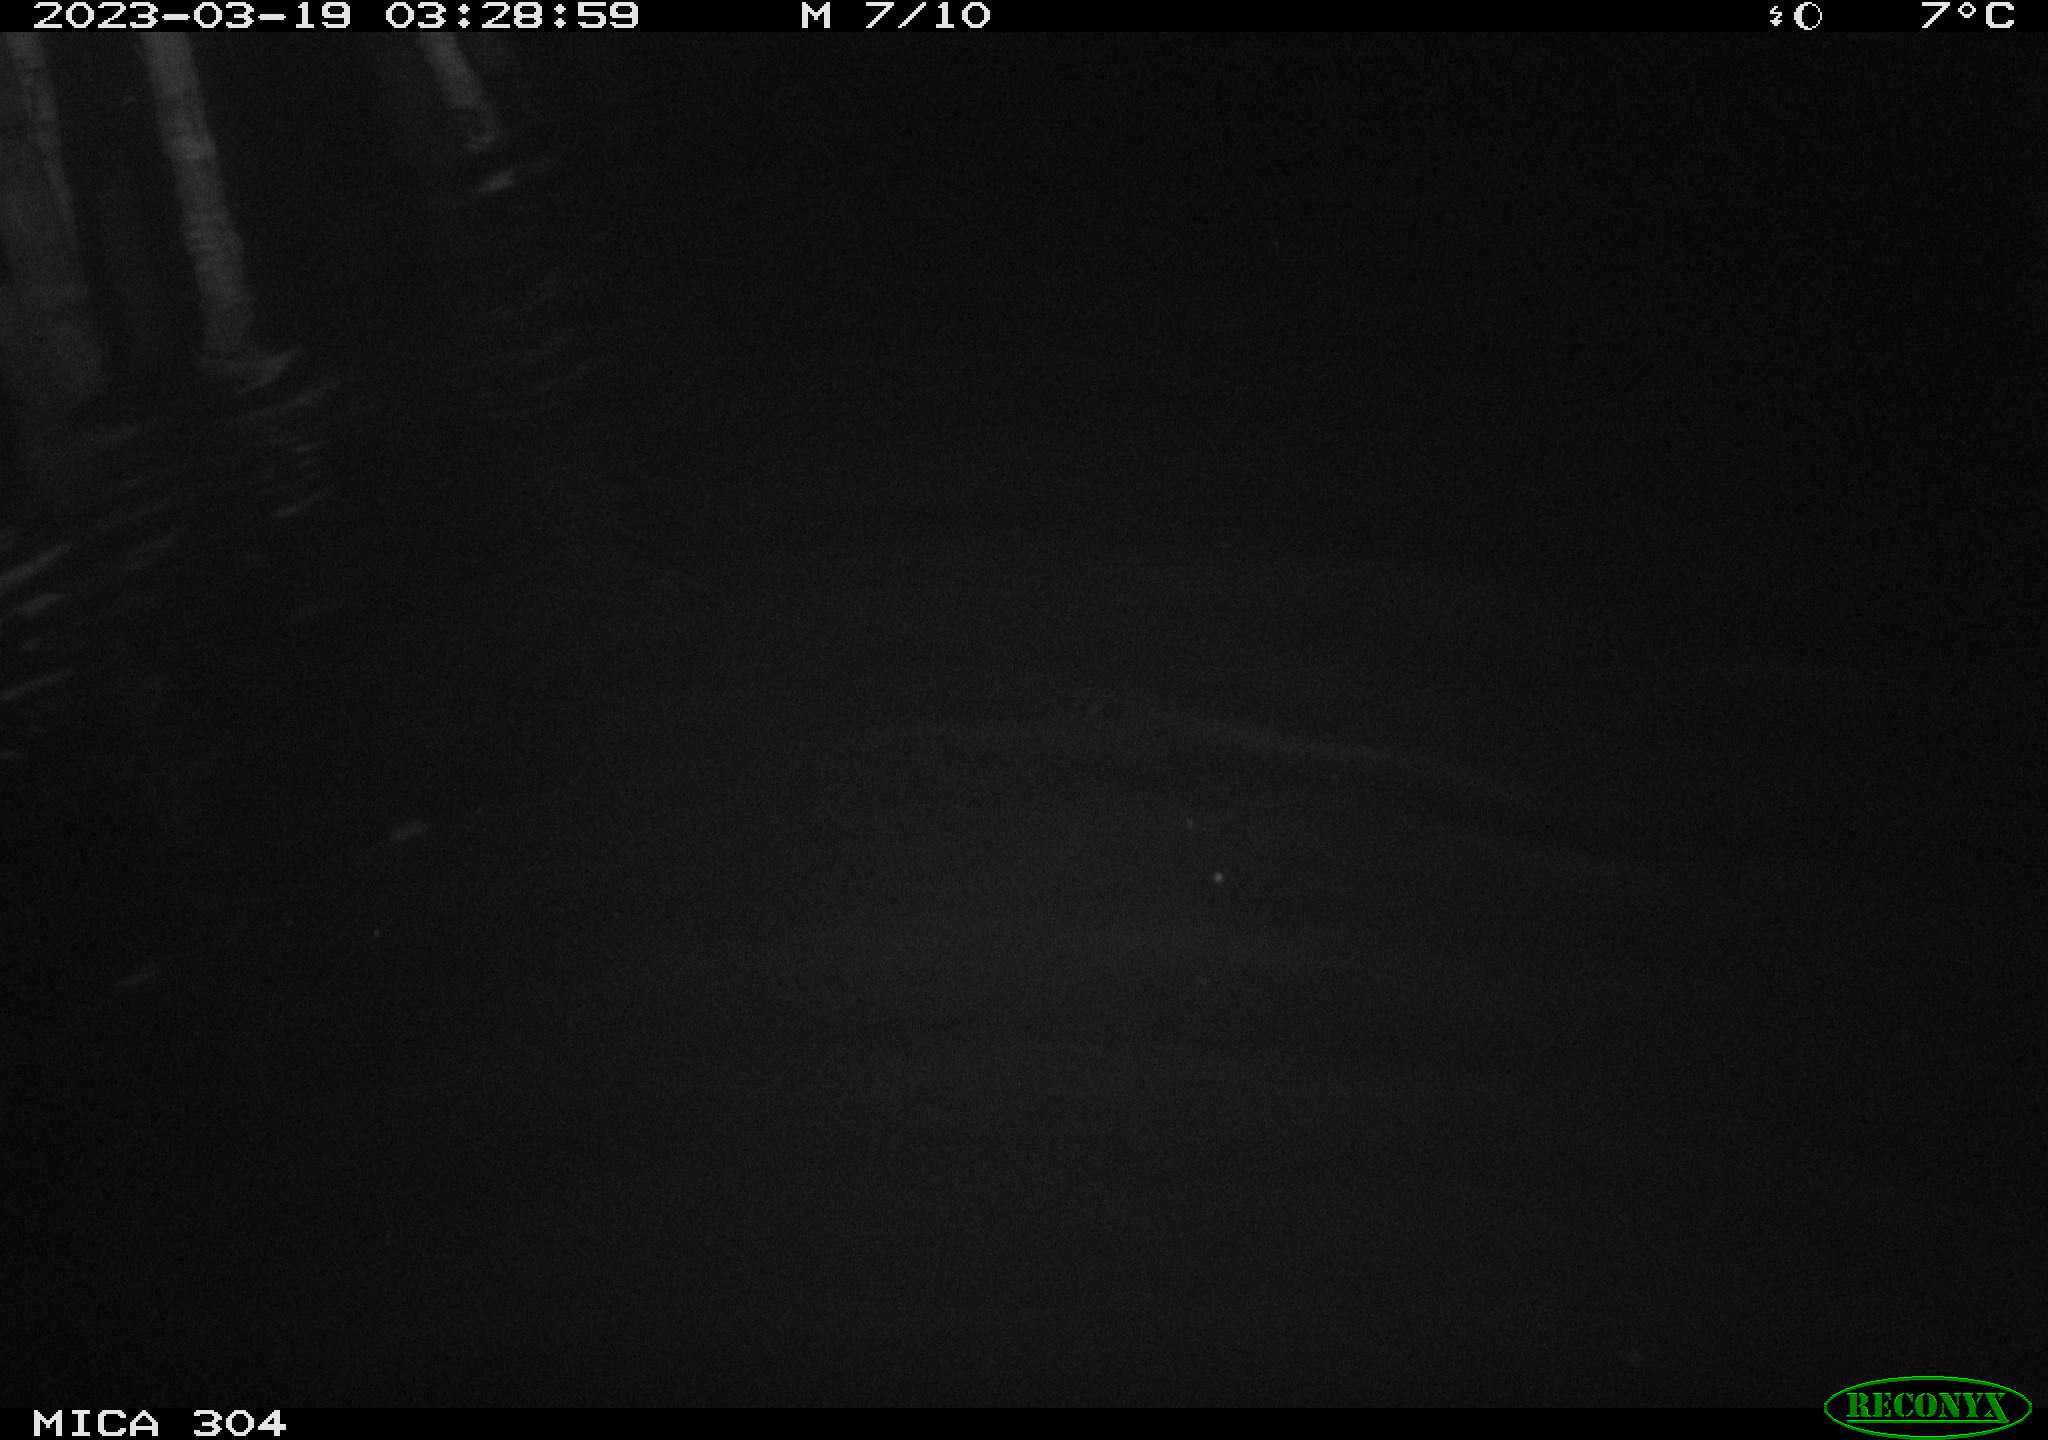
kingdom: Animalia
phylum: Chordata
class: Aves
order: Anseriformes
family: Anatidae
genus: Anas
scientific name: Anas
